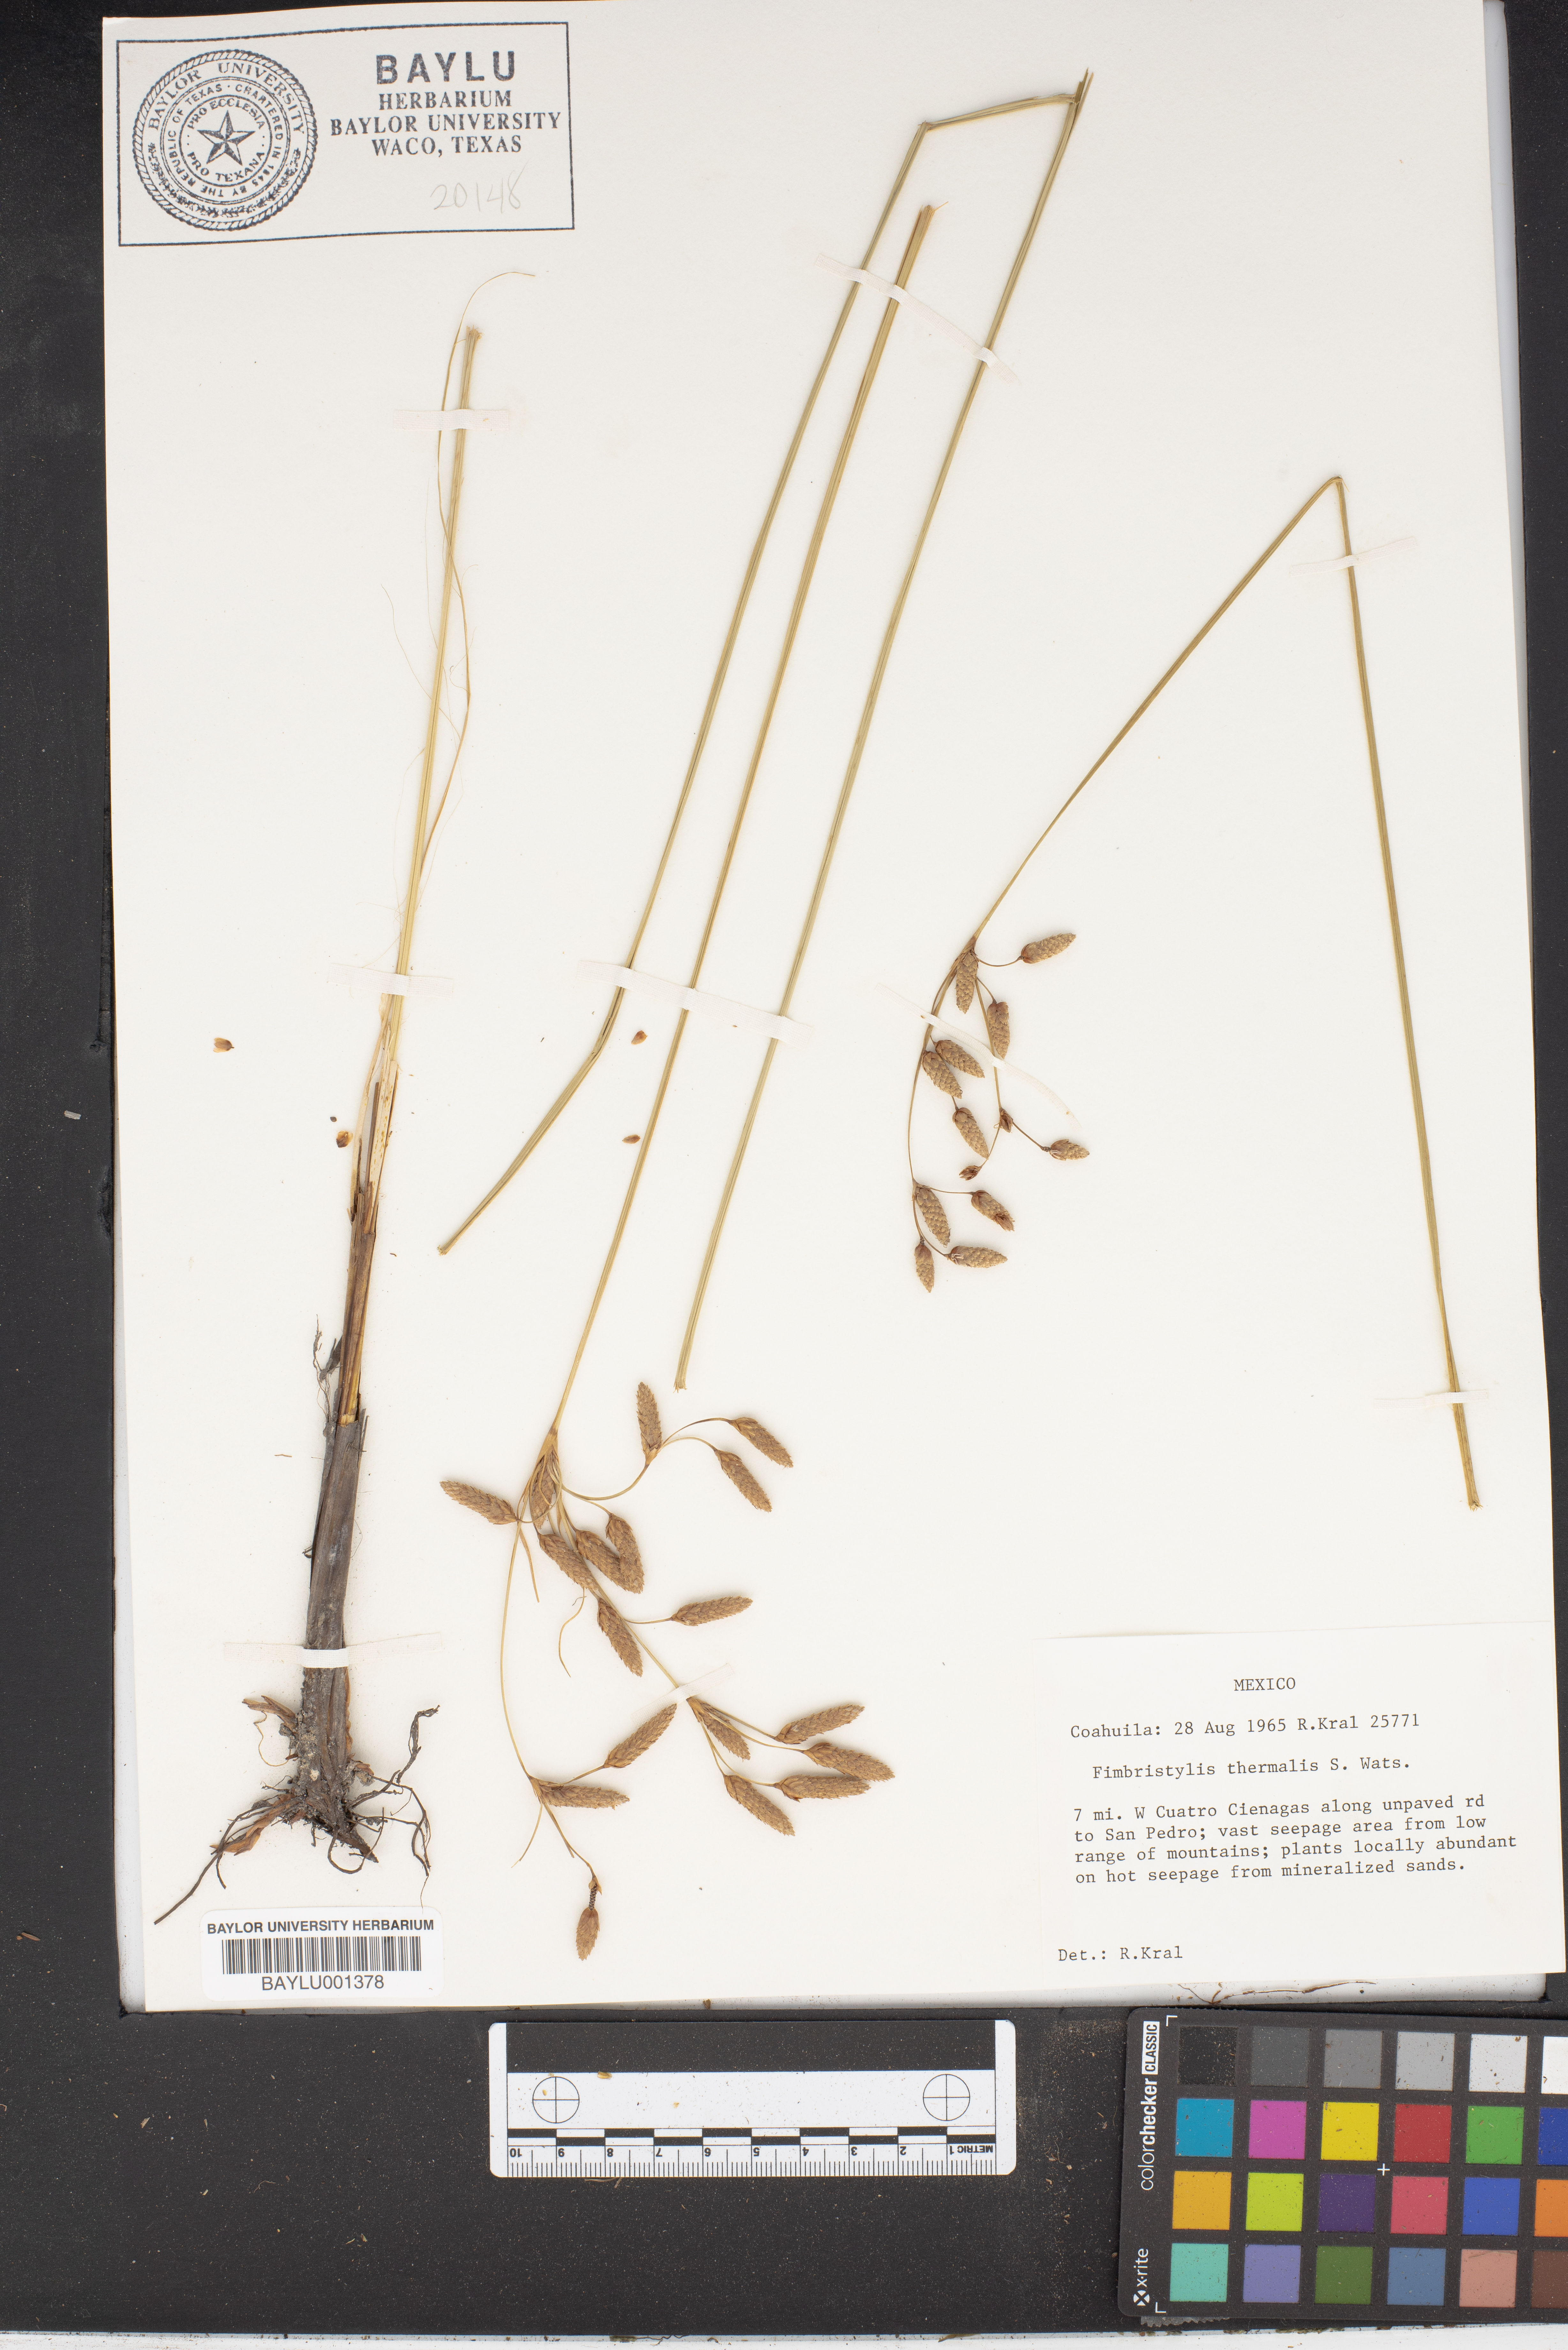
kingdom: Plantae
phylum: Tracheophyta
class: Liliopsida
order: Poales
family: Cyperaceae
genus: Fimbristylis
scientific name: Fimbristylis thermalis
